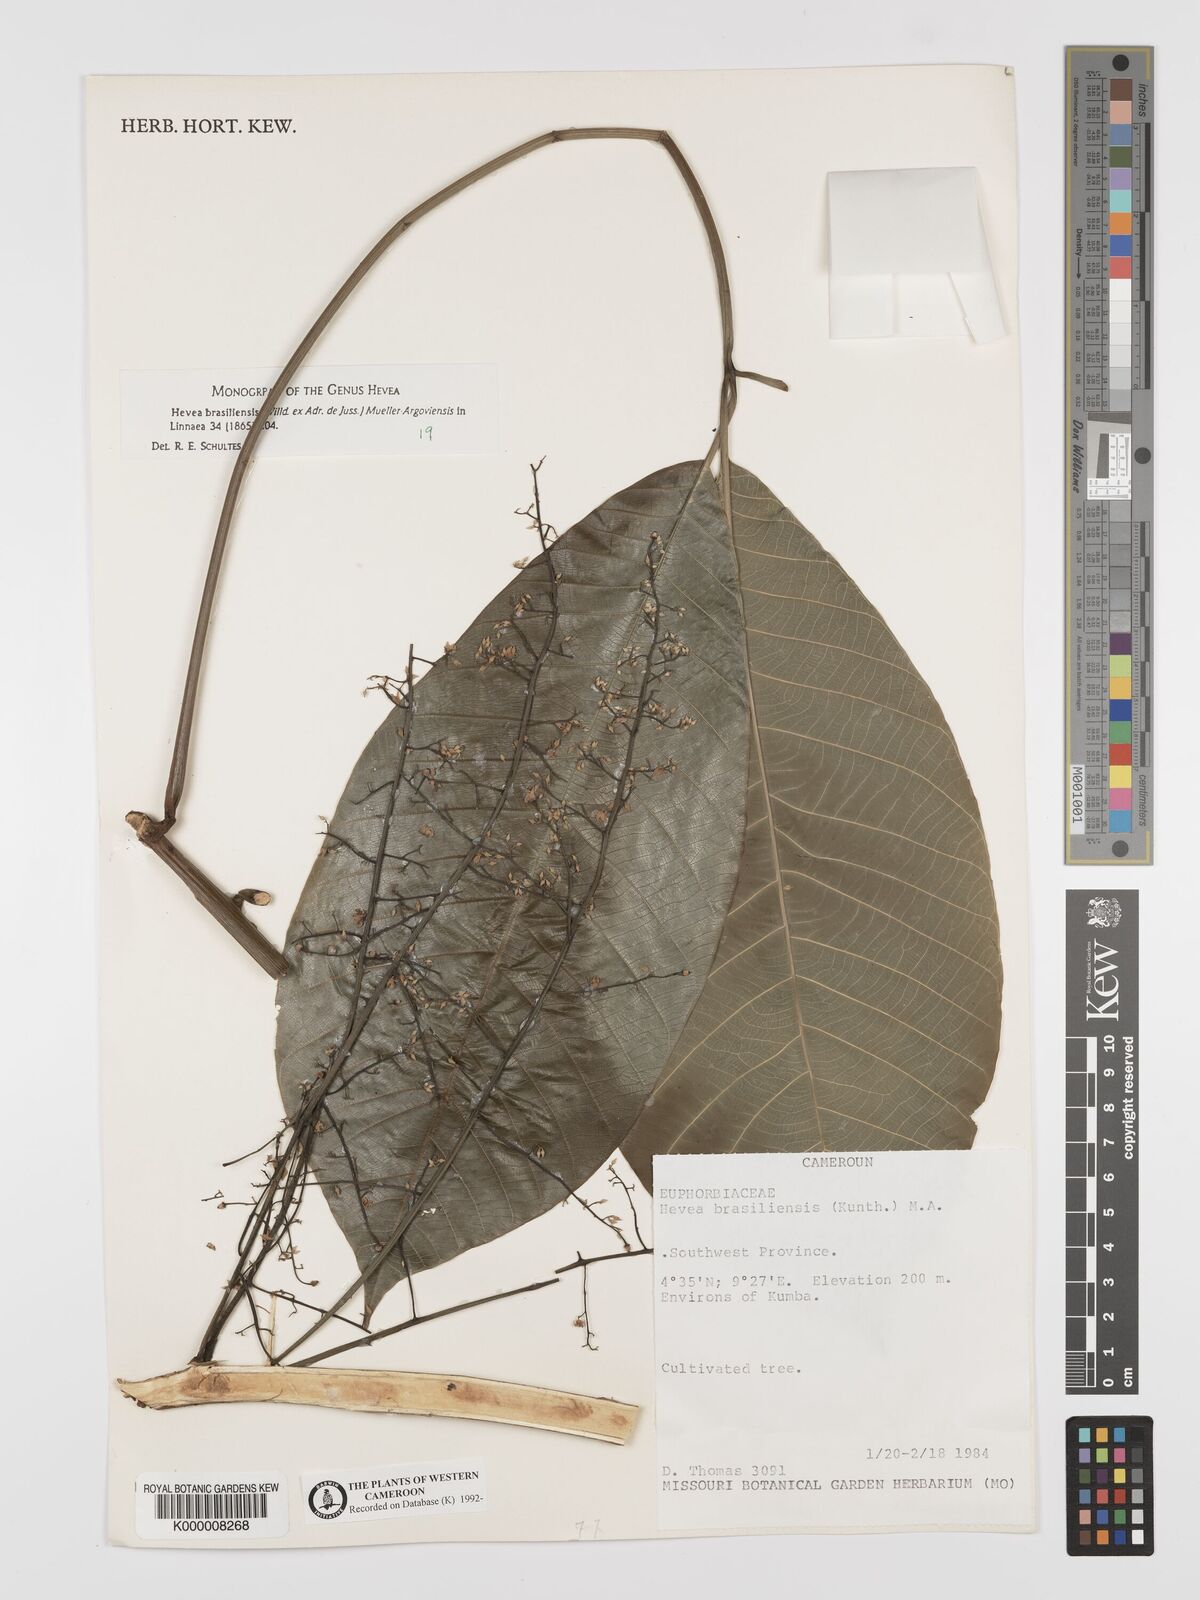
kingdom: Plantae
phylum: Tracheophyta
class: Magnoliopsida
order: Malpighiales
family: Euphorbiaceae
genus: Hevea
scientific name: Hevea
